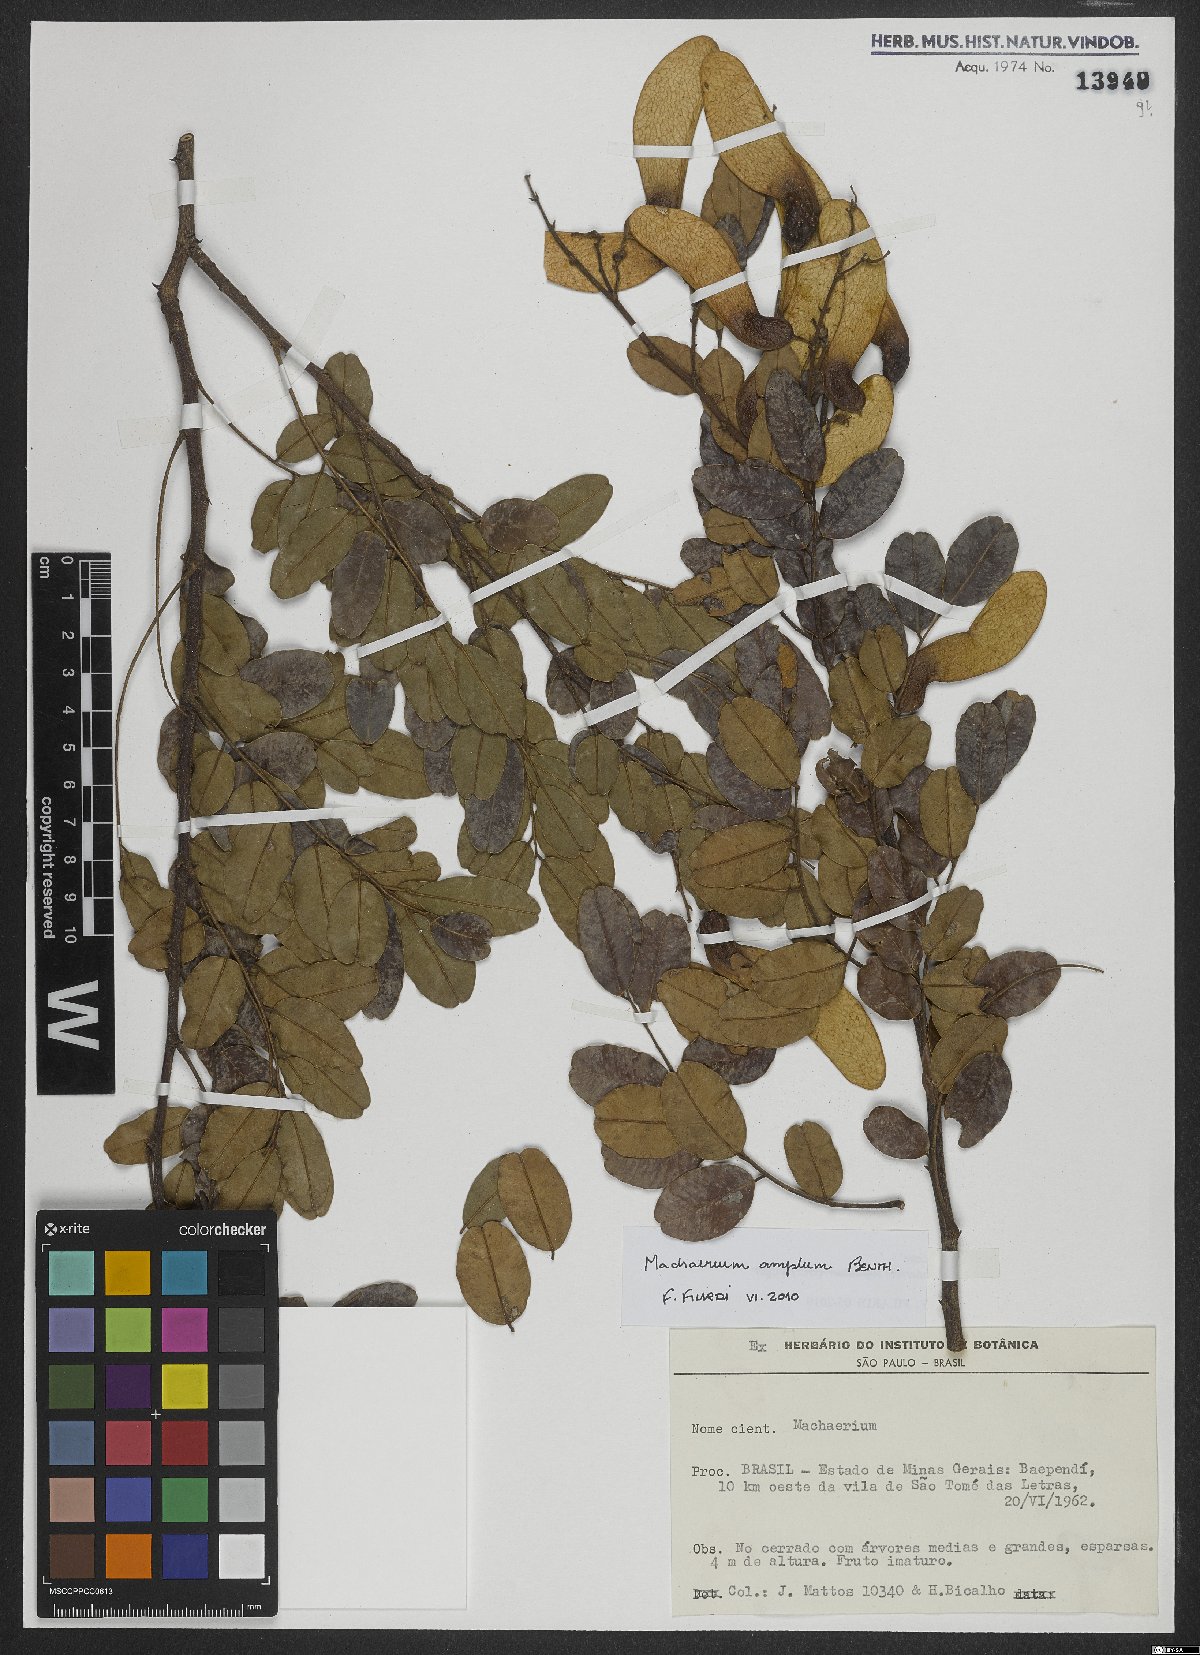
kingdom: Plantae
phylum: Tracheophyta
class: Magnoliopsida
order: Fabales
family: Fabaceae
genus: Machaerium
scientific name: Machaerium amplum
